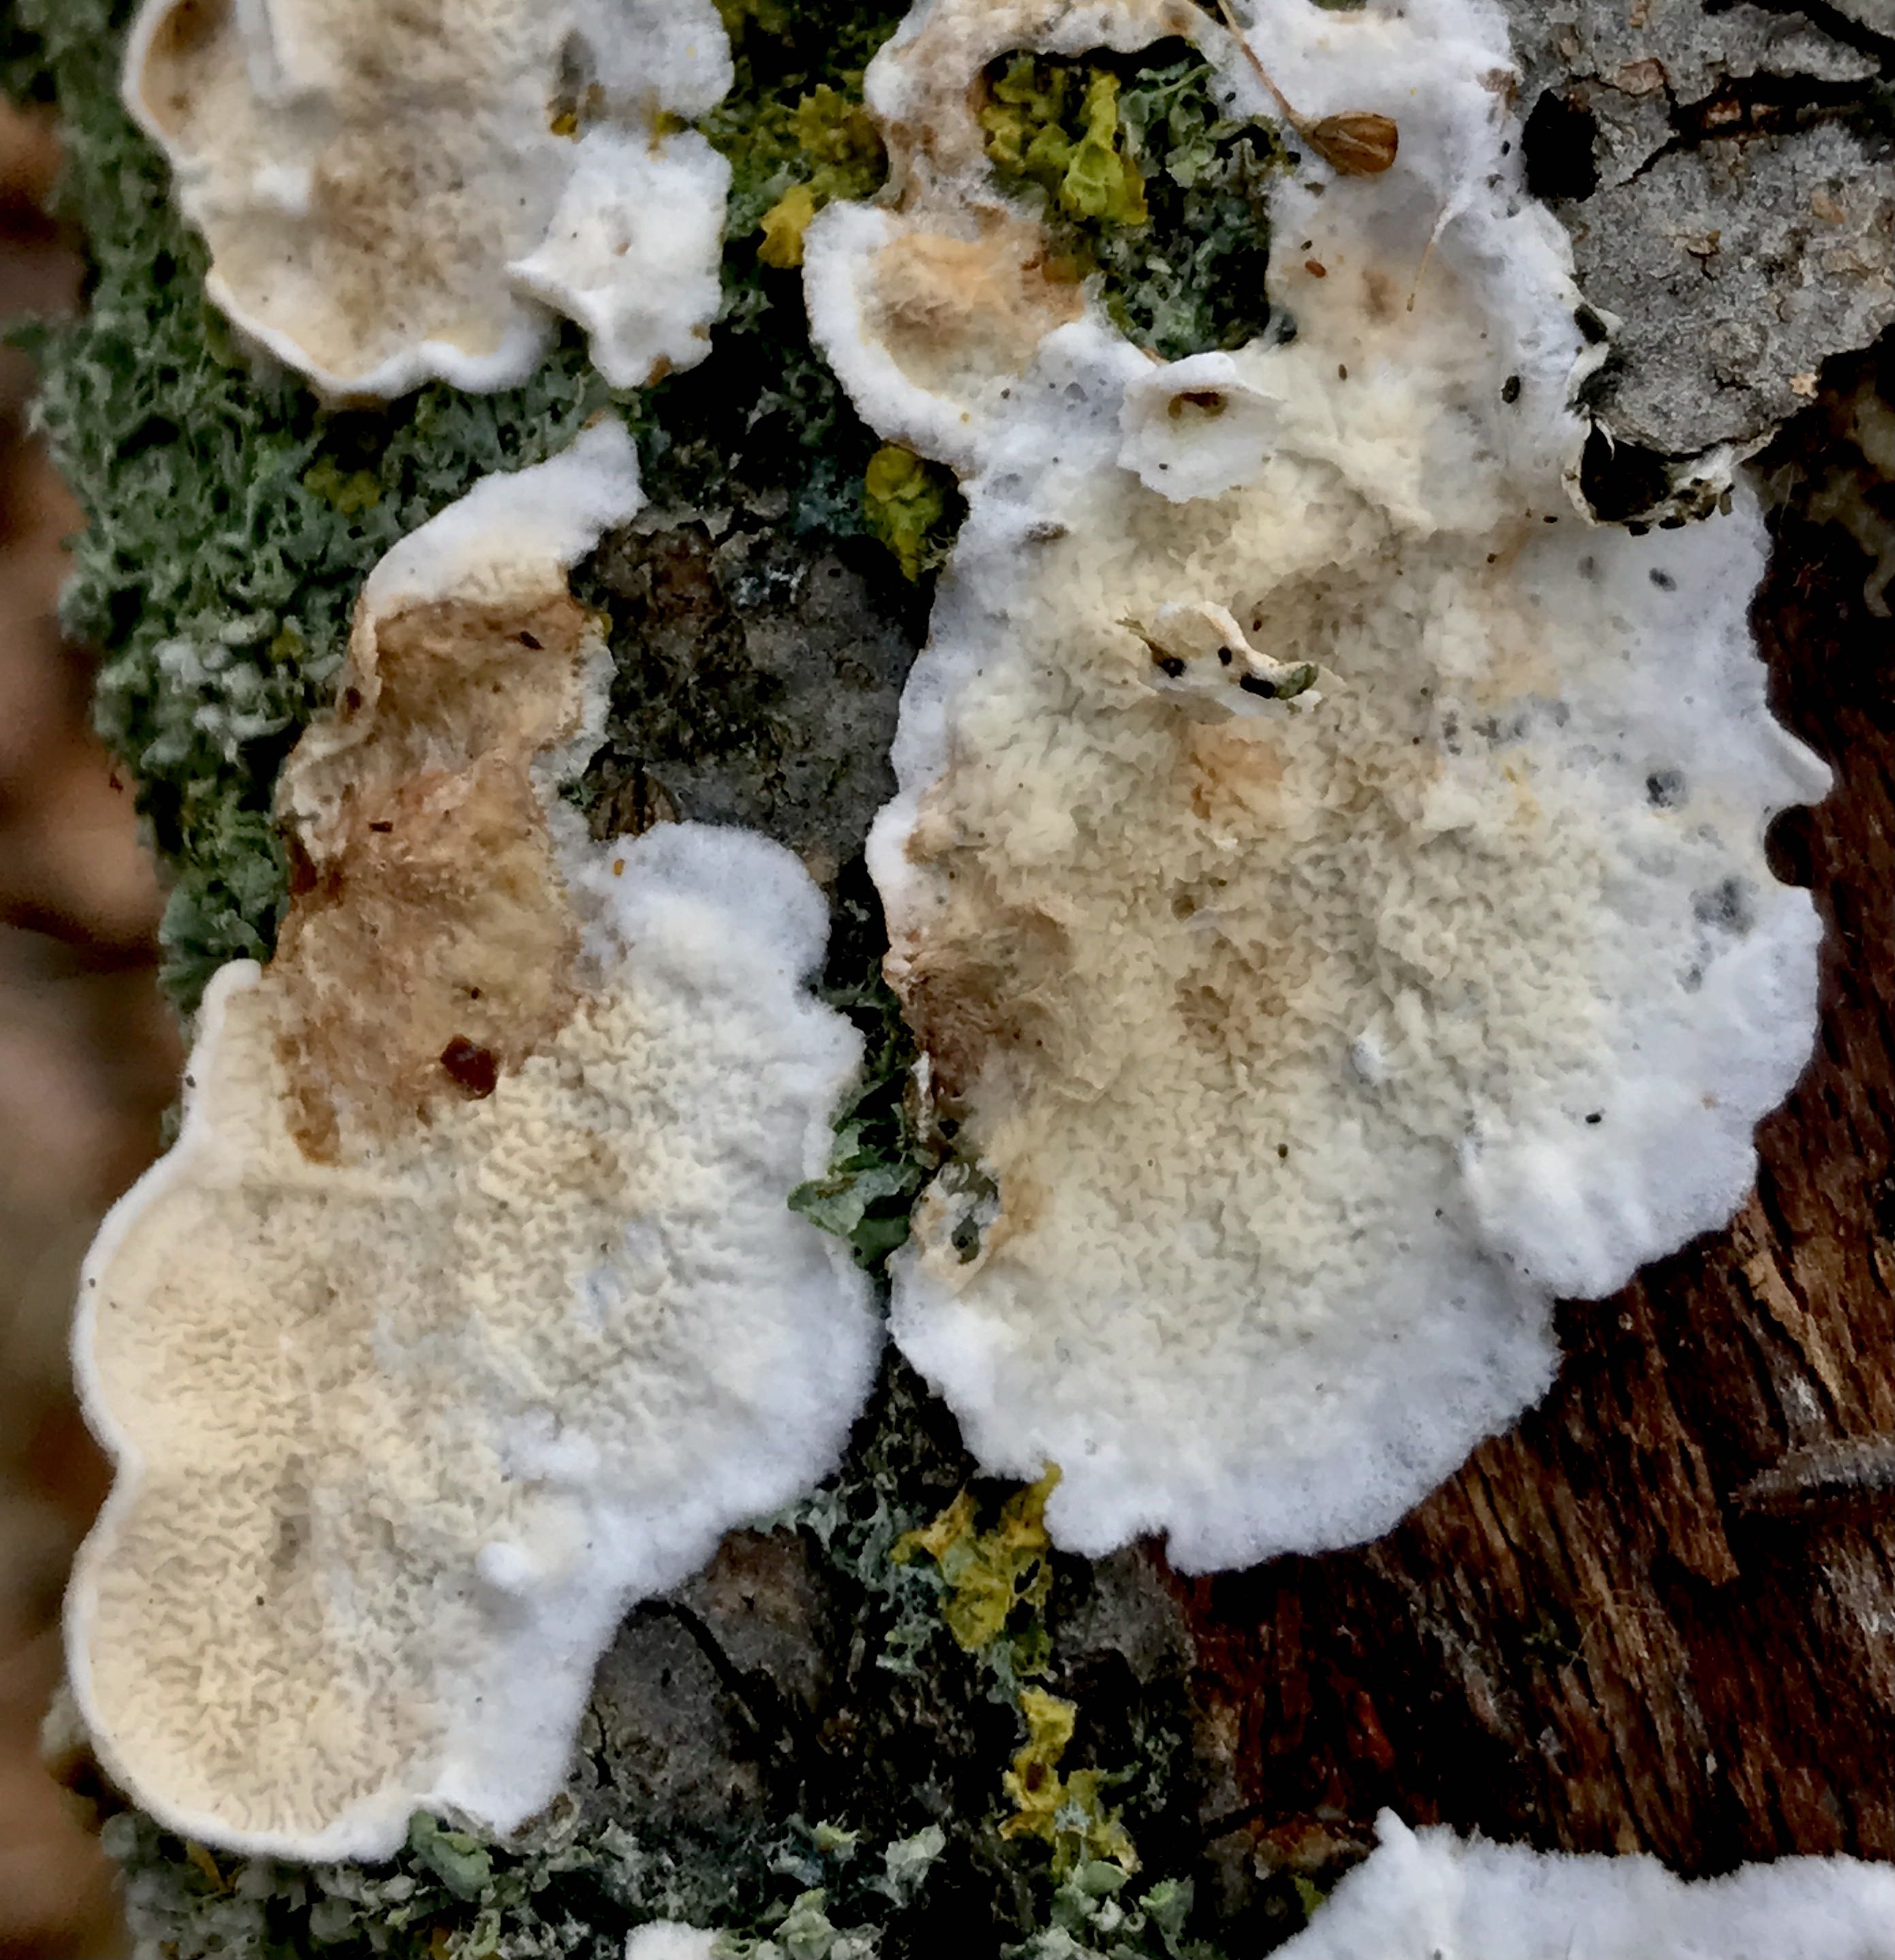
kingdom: Fungi
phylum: Basidiomycota
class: Agaricomycetes
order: Polyporales
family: Irpicaceae
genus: Byssomerulius
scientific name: Byssomerulius corium
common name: læder-åresvamp
